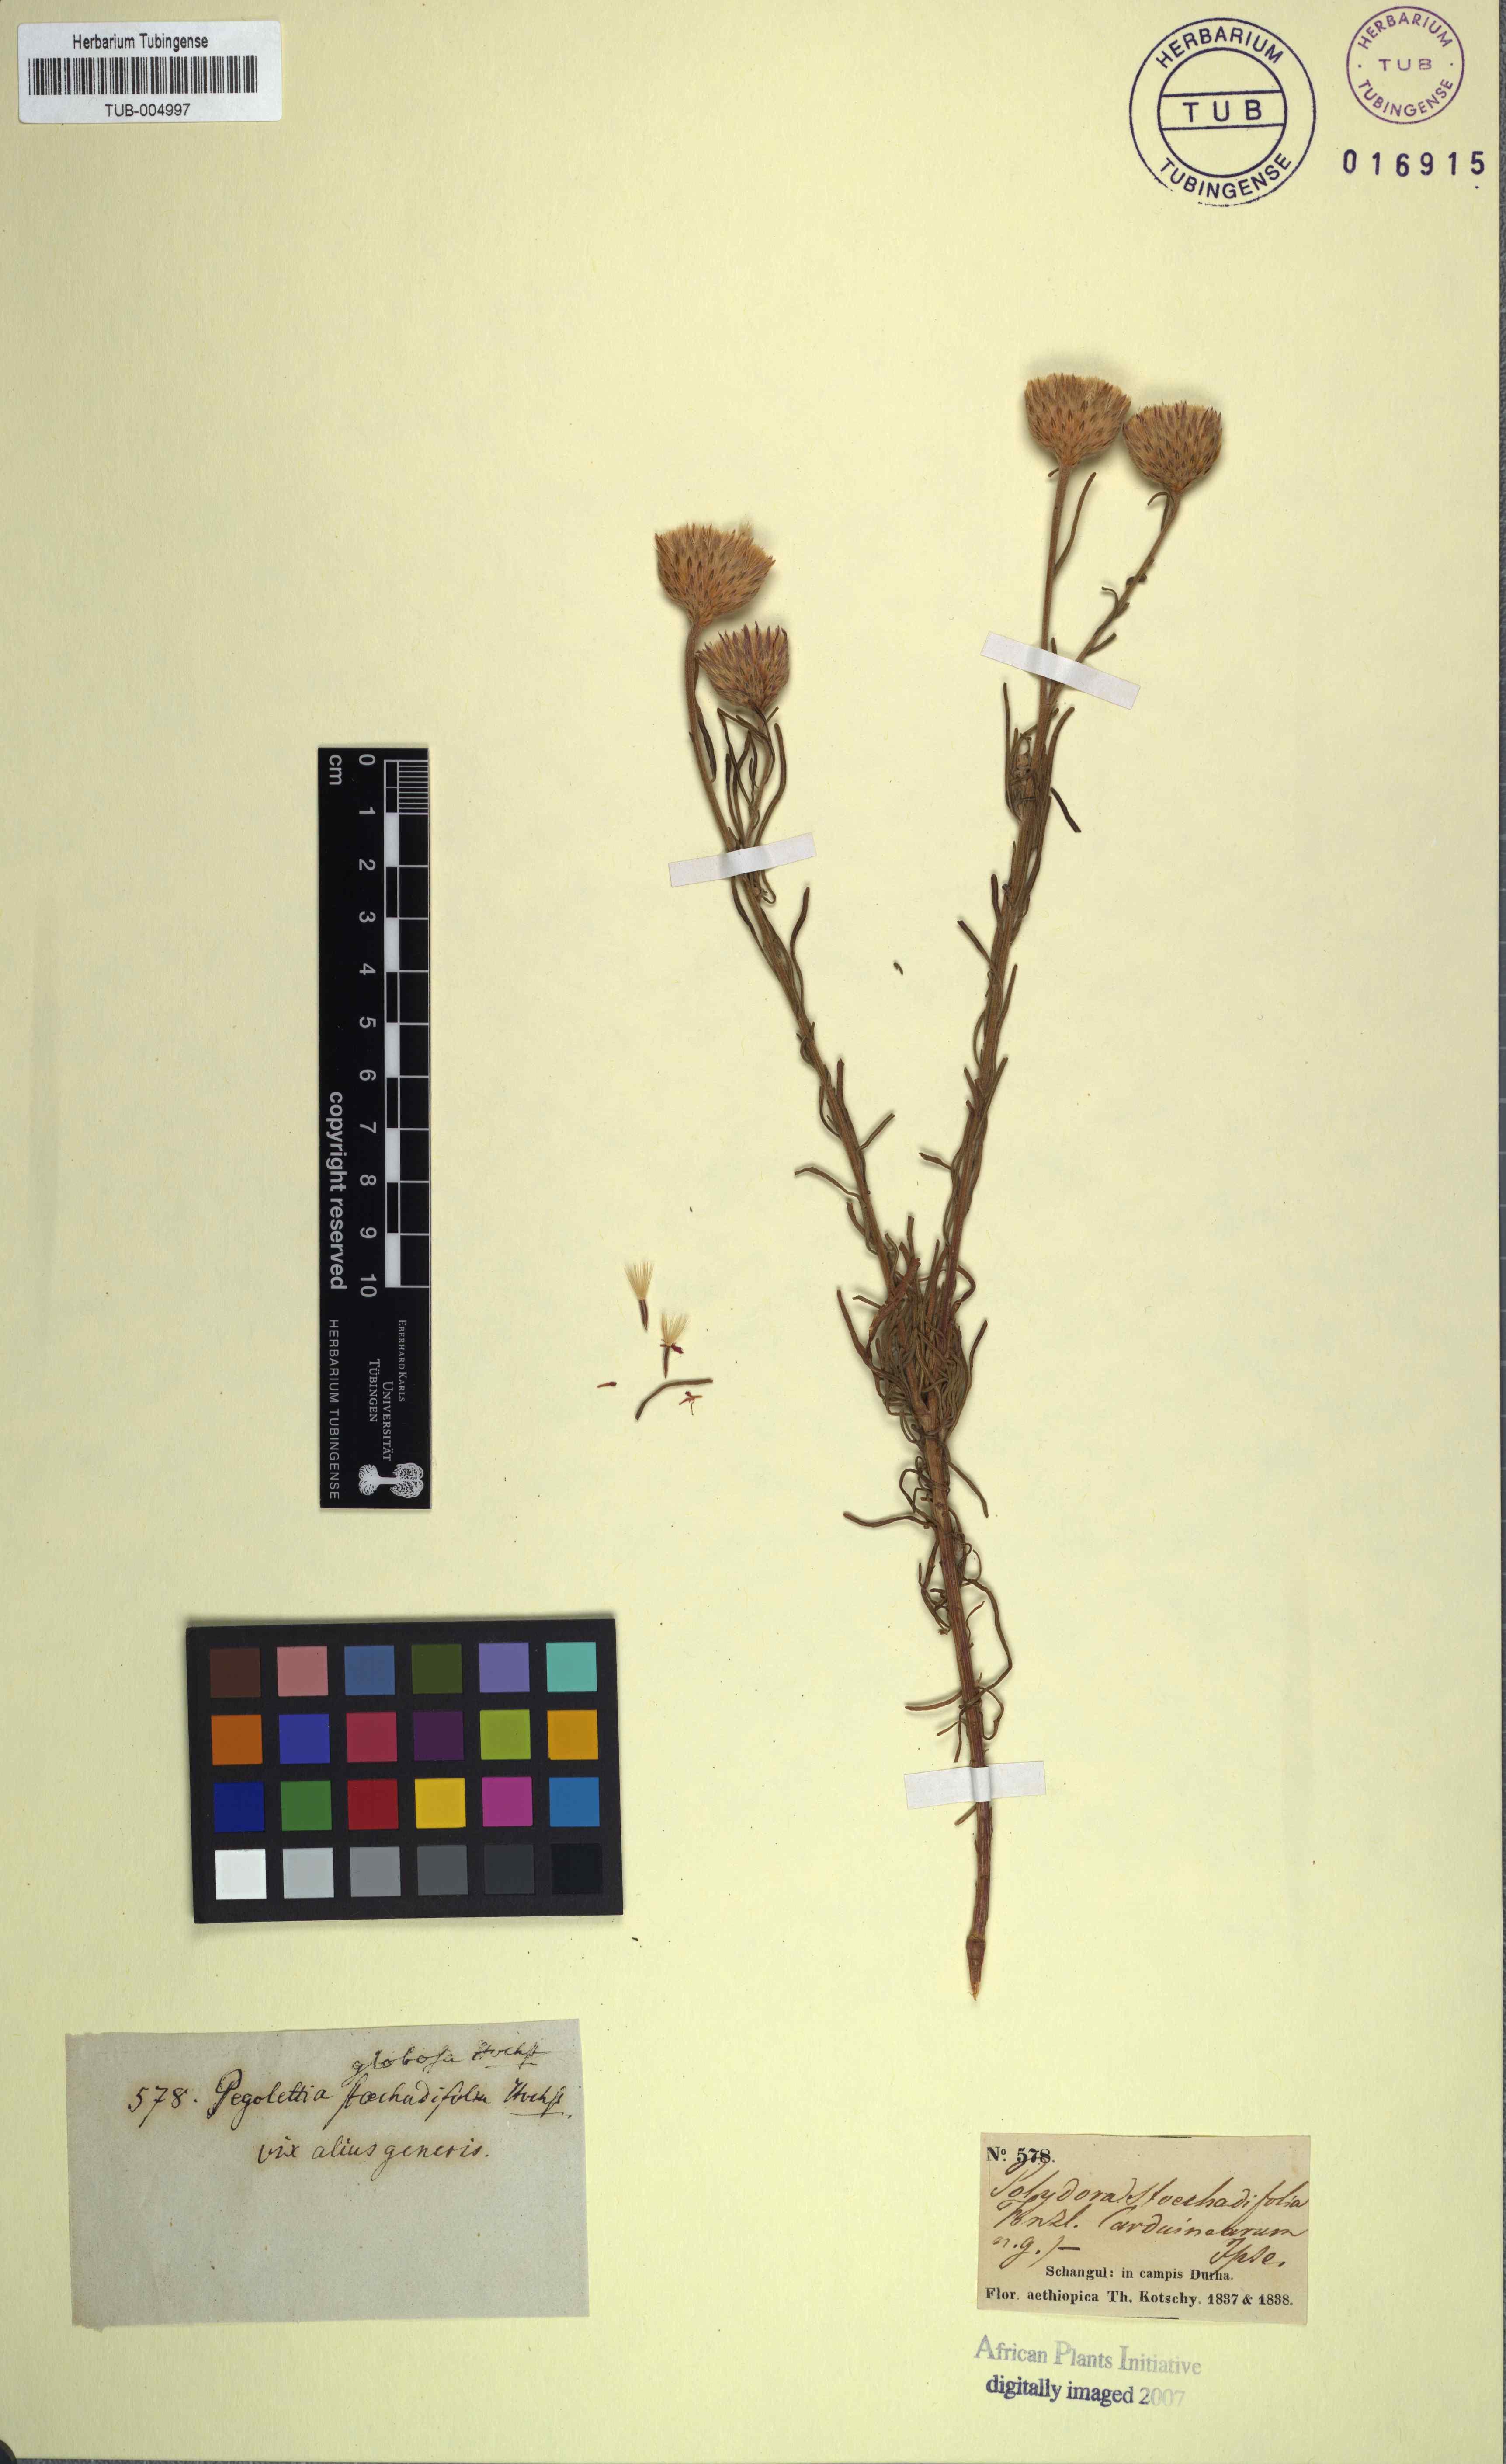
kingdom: Plantae
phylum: Tracheophyta
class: Magnoliopsida
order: Asterales
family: Asteraceae
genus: Crystallopollen
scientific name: Crystallopollen serratuloides
